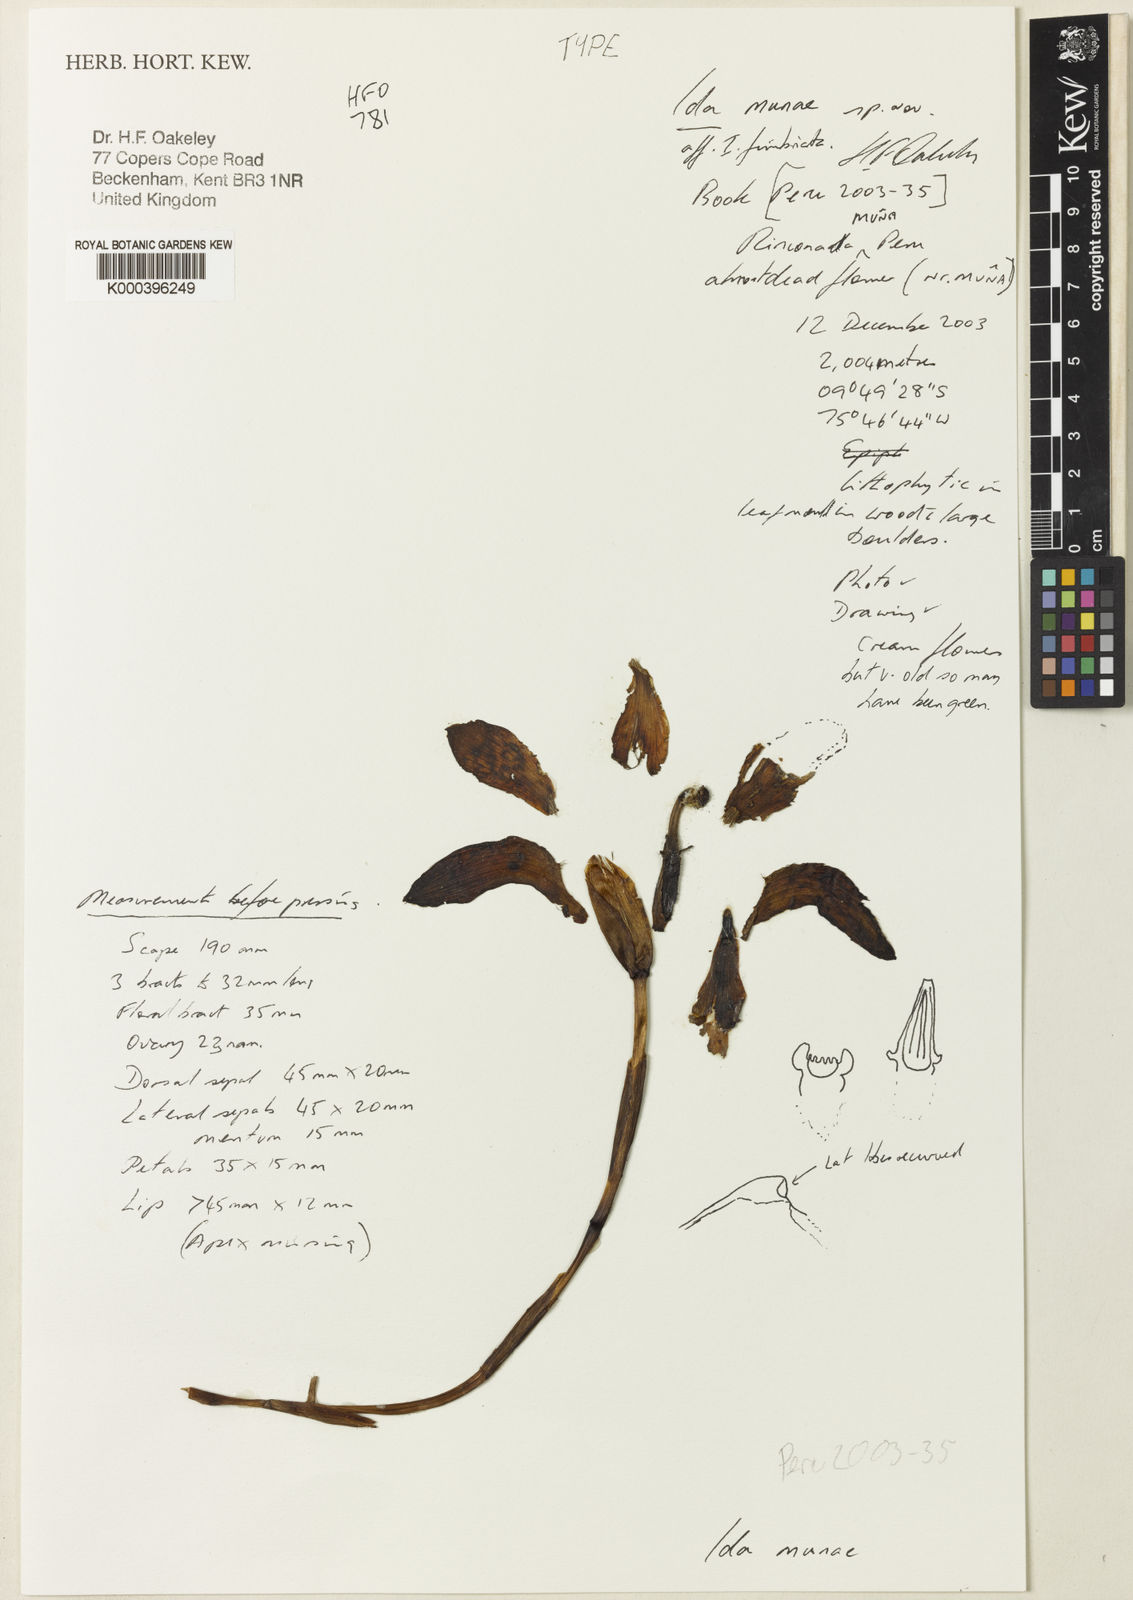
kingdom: Plantae
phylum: Tracheophyta
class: Liliopsida
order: Asparagales
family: Orchidaceae
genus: Ida
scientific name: Ida
